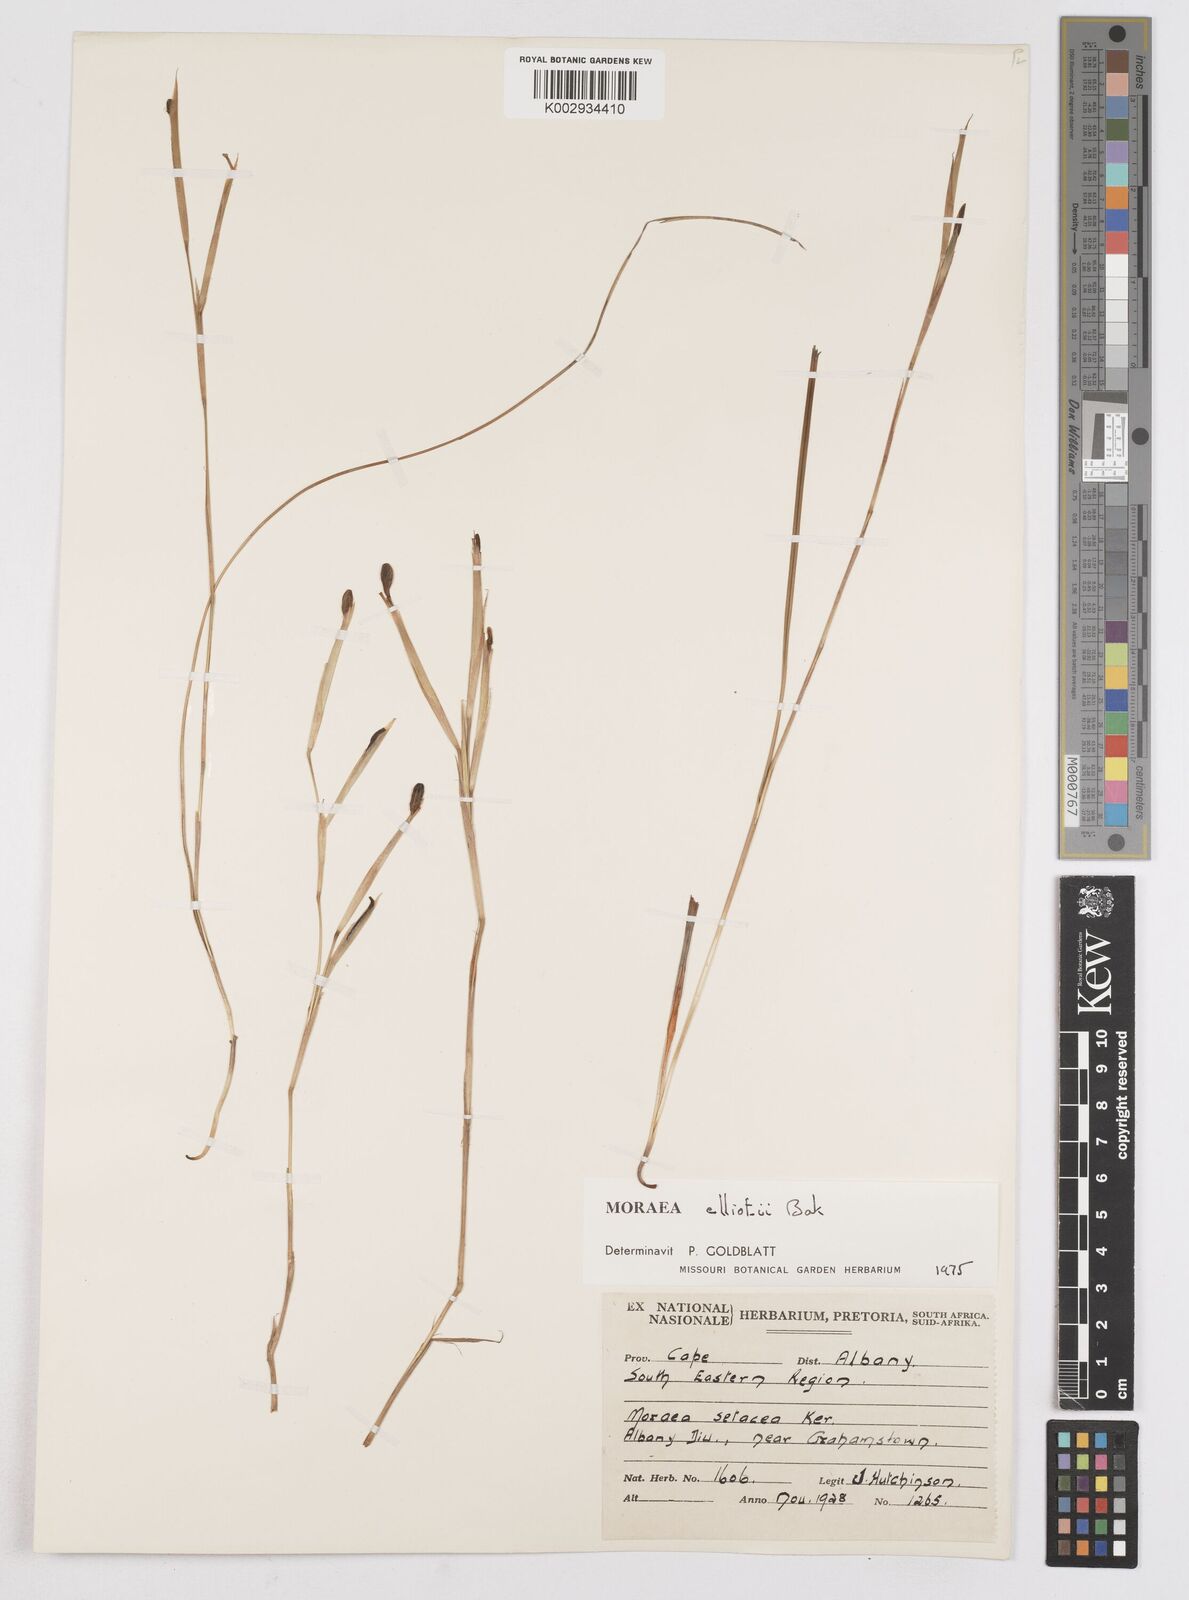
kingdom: Plantae
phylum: Tracheophyta
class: Liliopsida
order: Asparagales
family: Iridaceae
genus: Moraea
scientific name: Moraea elliotii
